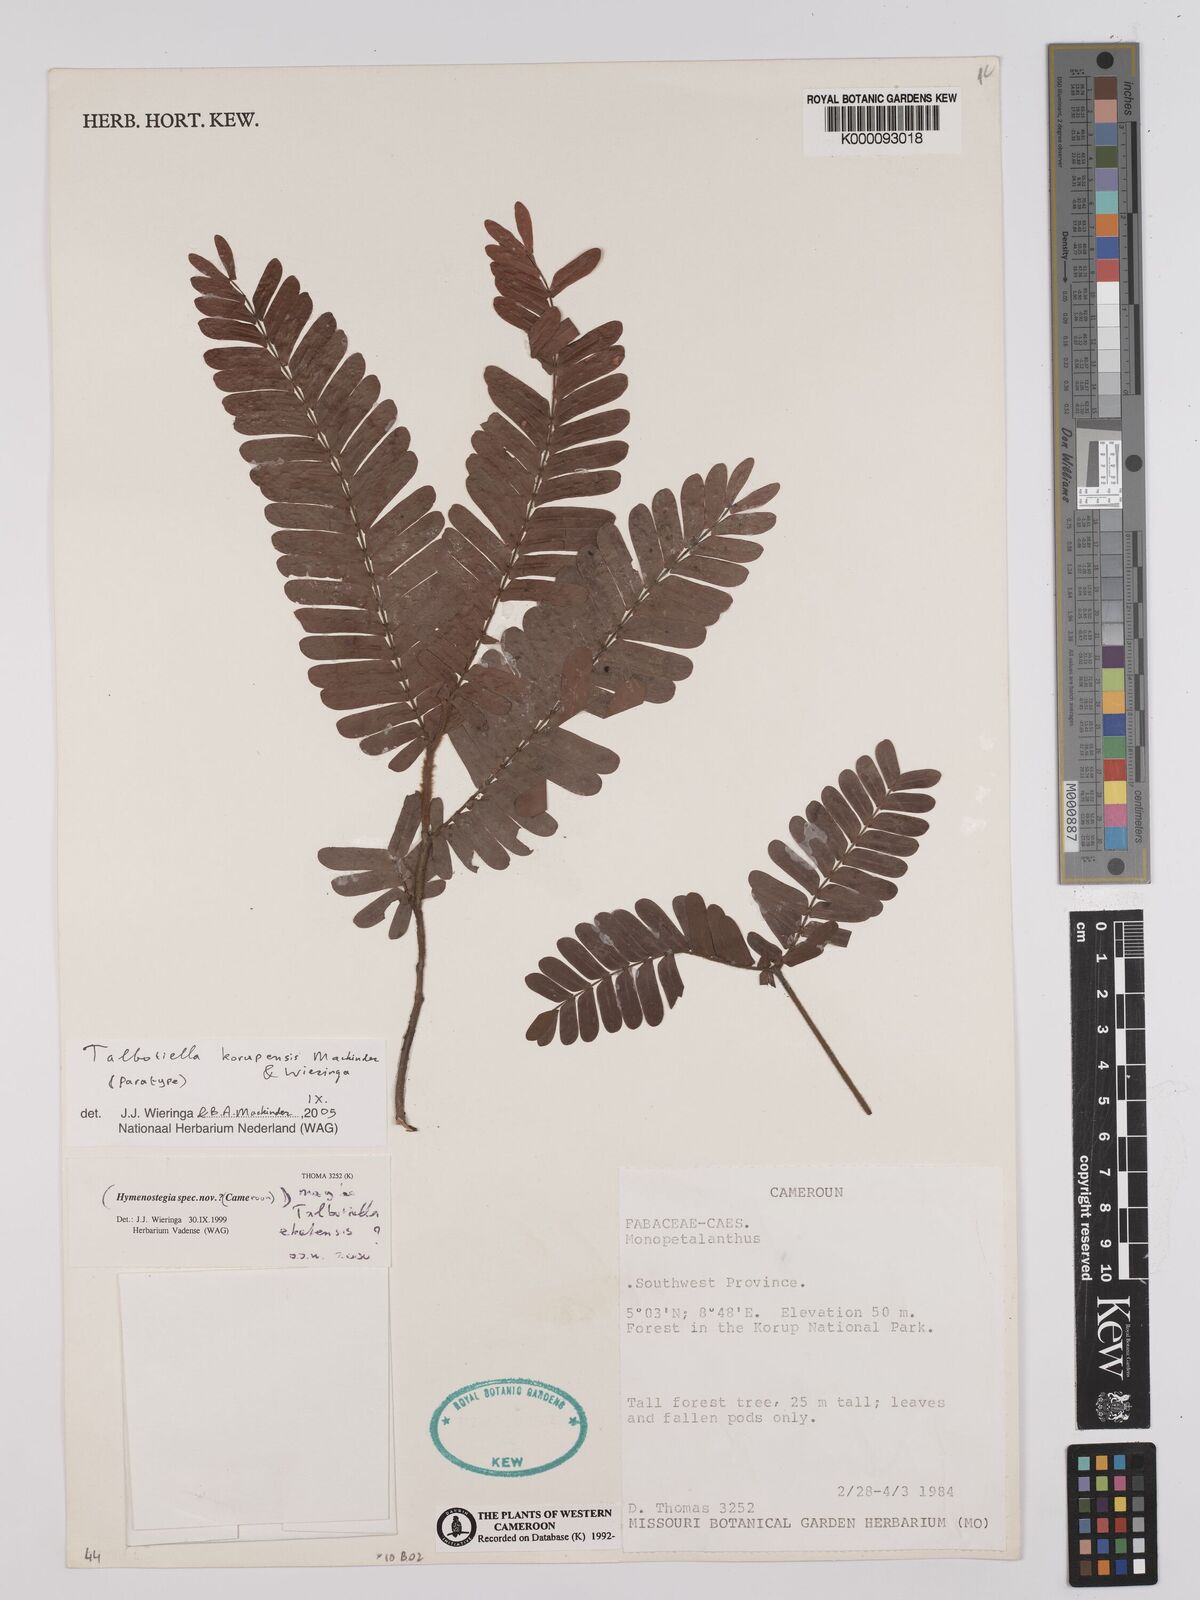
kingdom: Plantae
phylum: Tracheophyta
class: Magnoliopsida
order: Fabales
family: Fabaceae
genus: Talbotiella
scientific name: Talbotiella korupensis
